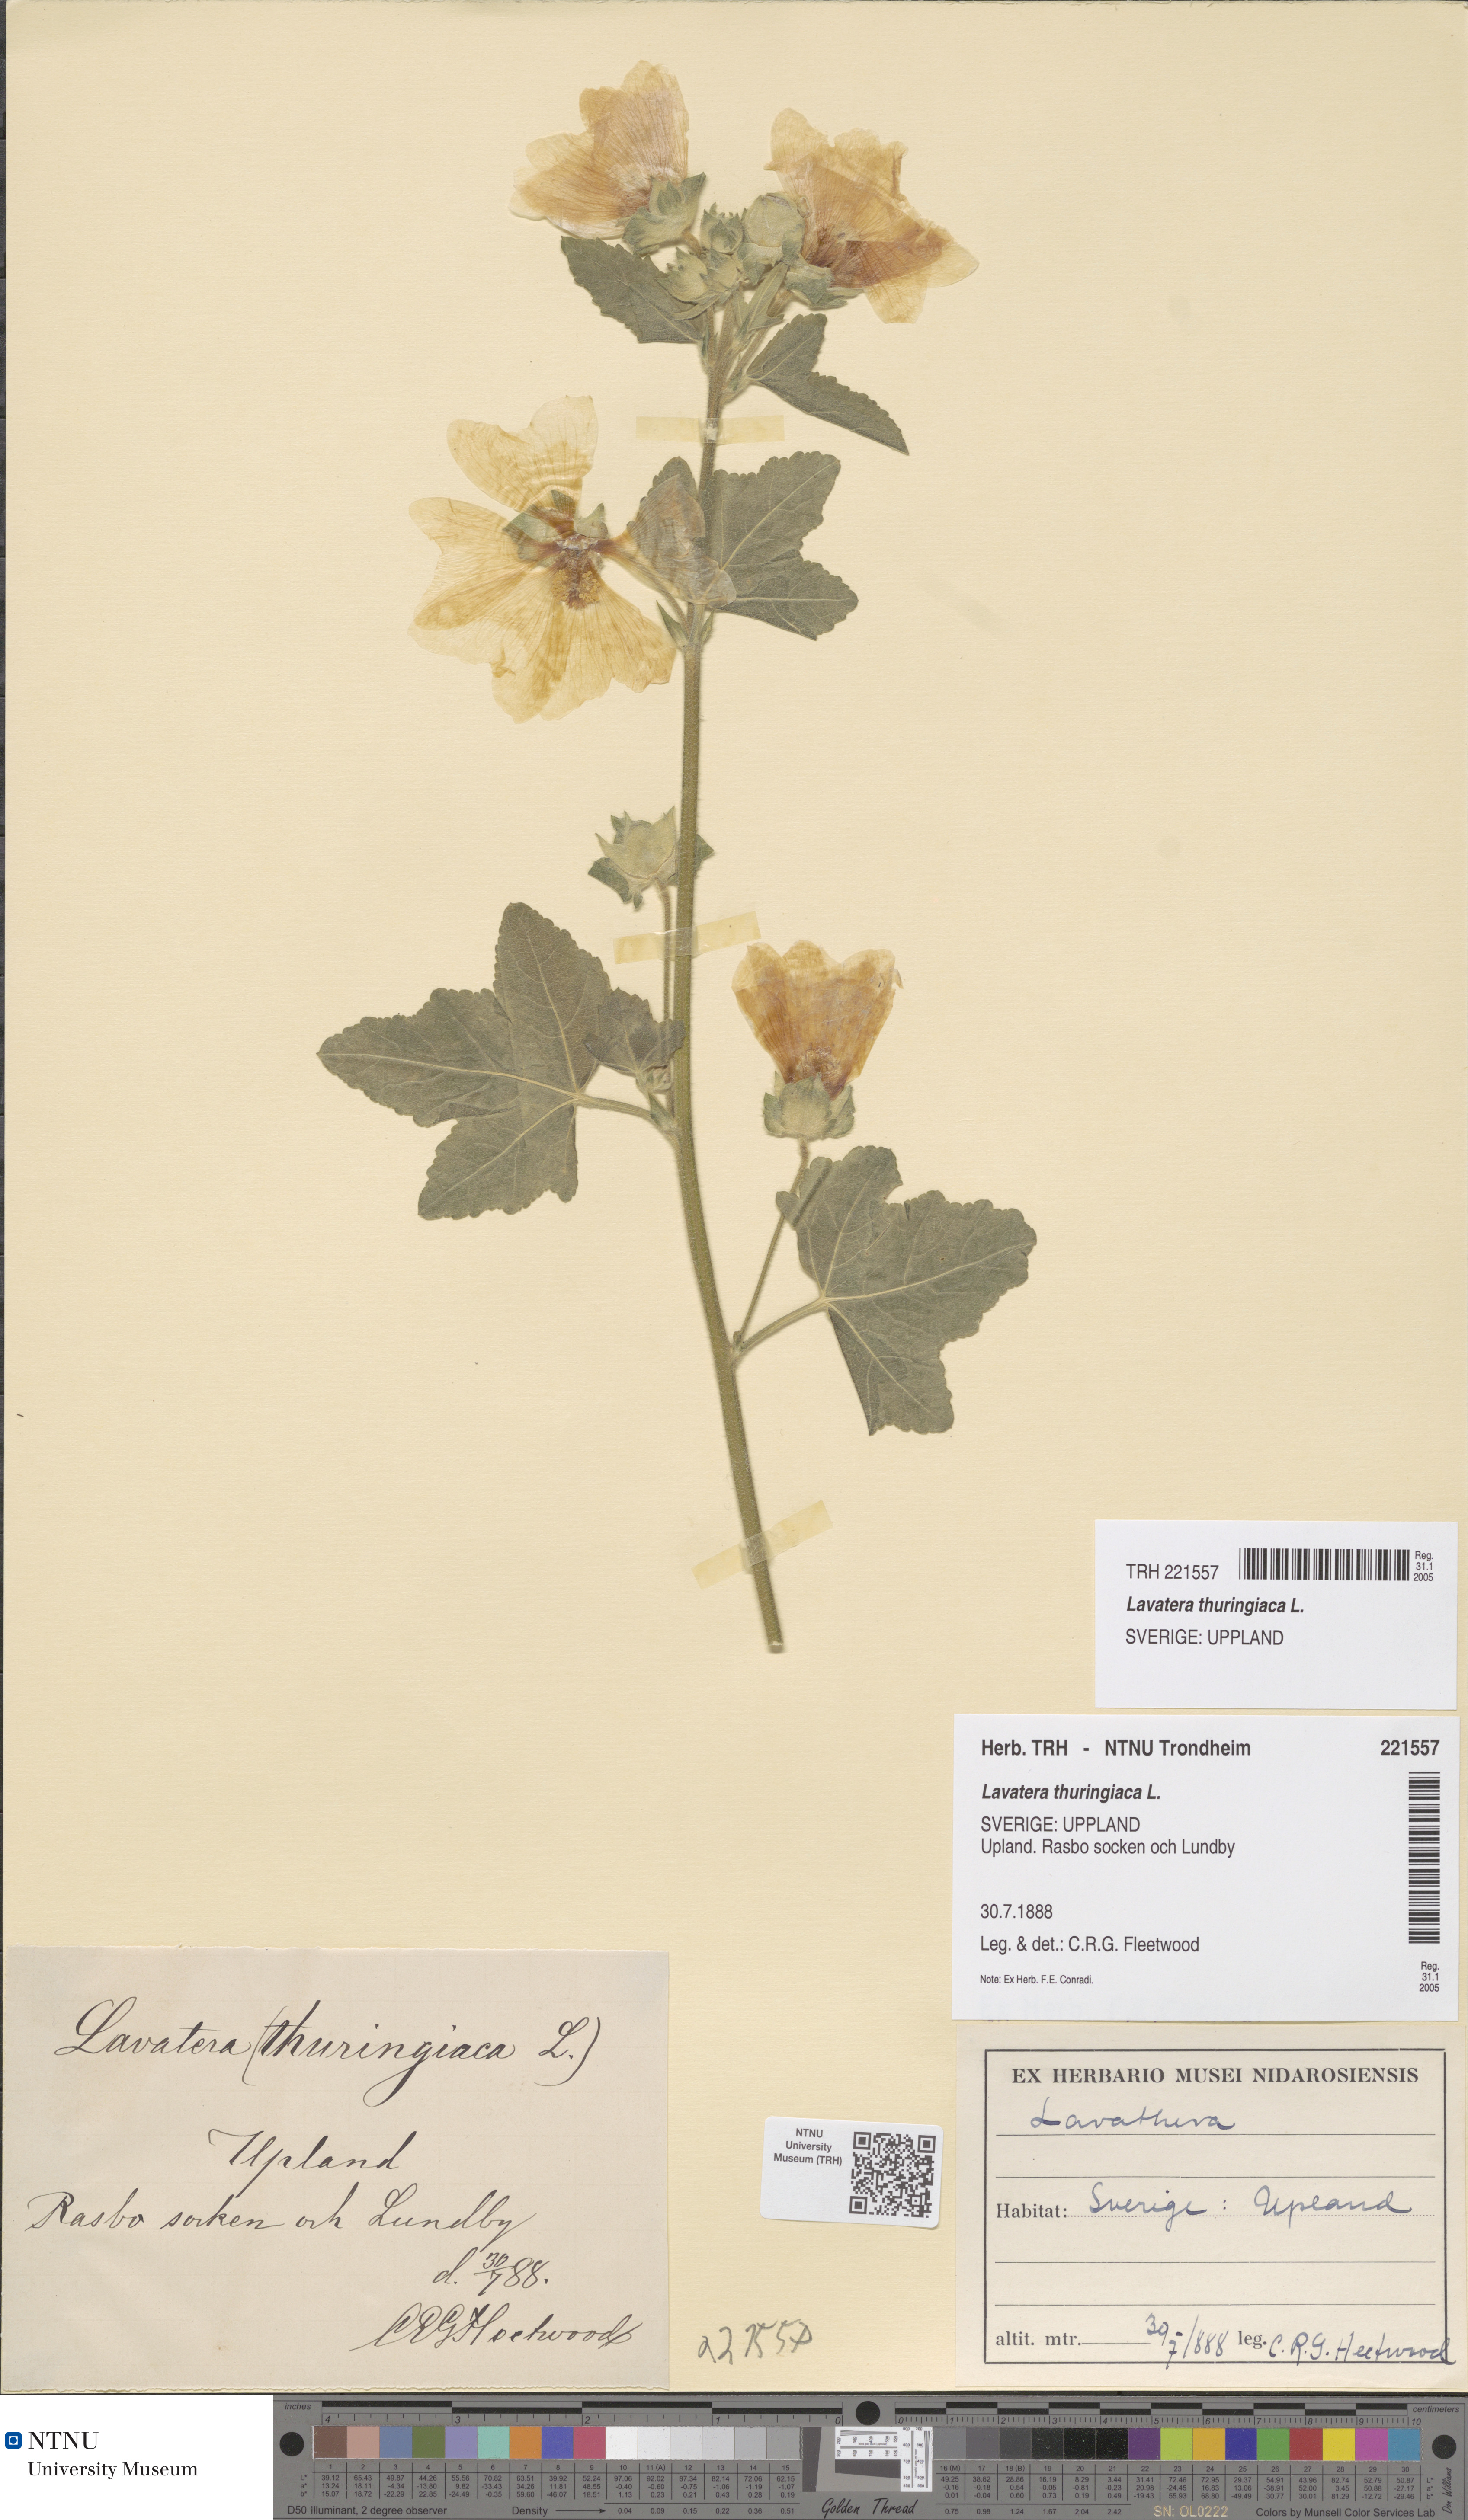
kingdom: Plantae
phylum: Tracheophyta
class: Magnoliopsida
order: Malvales
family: Malvaceae
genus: Malva
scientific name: Malva thuringiaca
